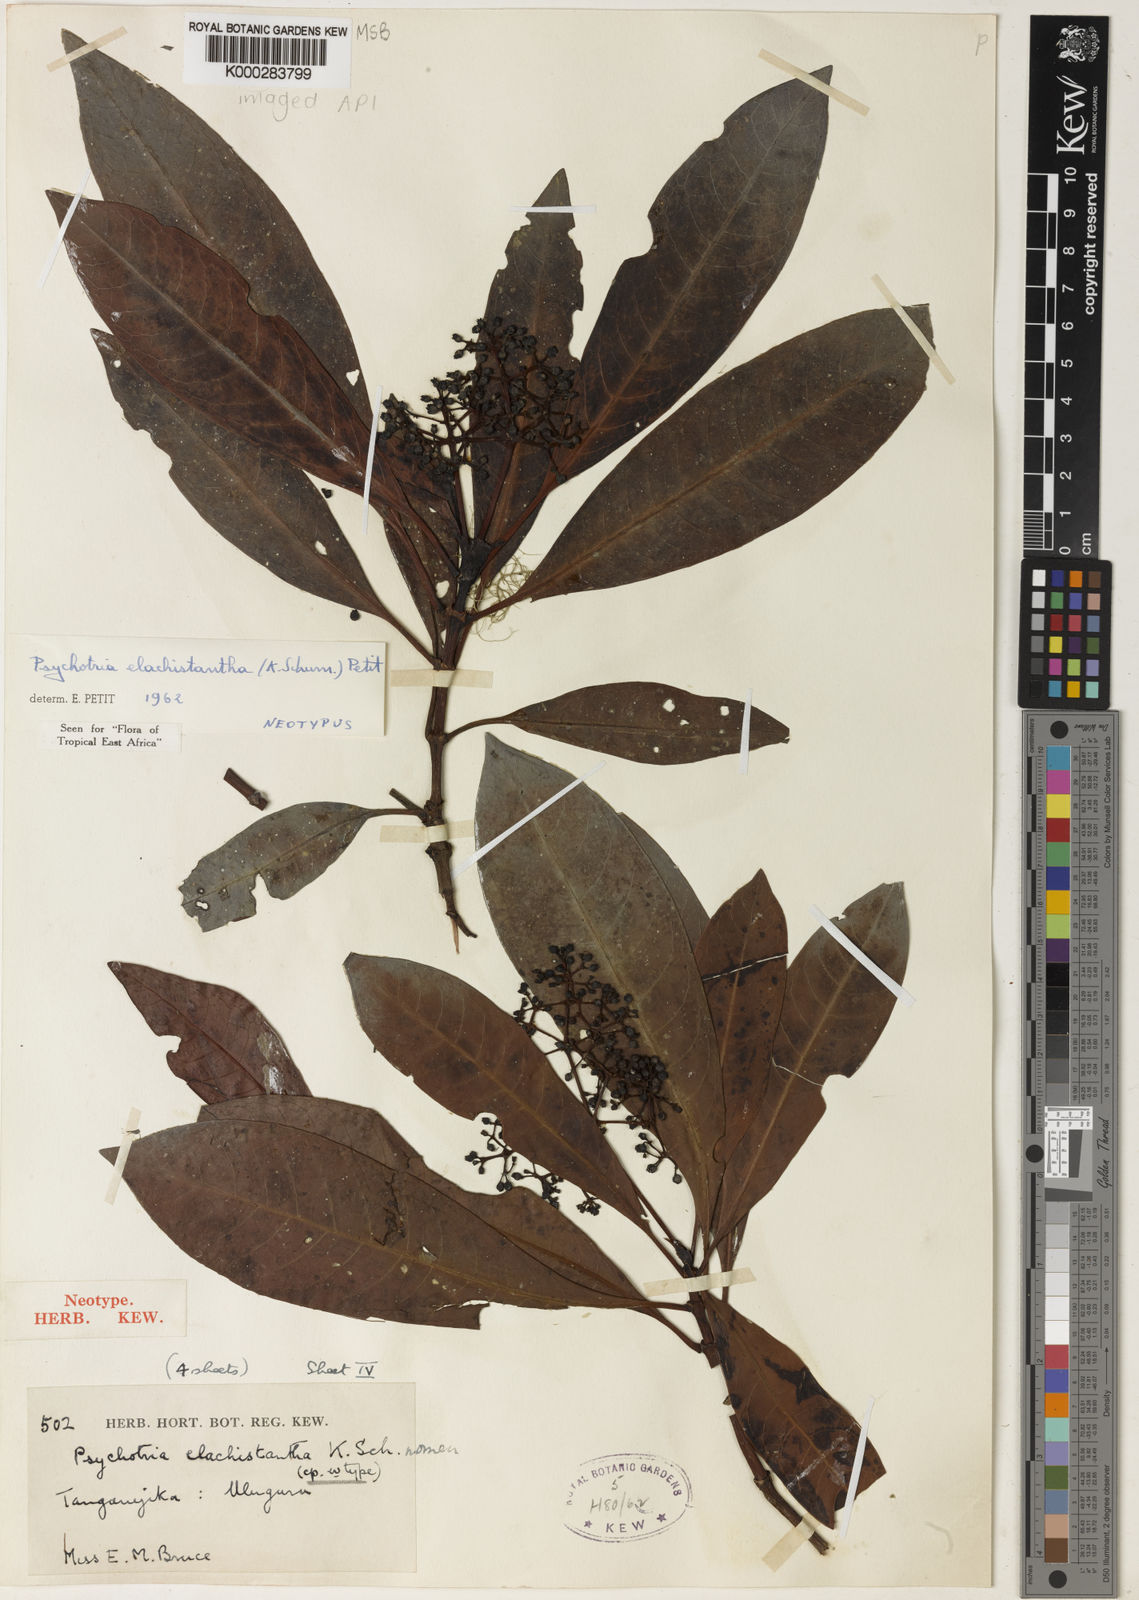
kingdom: Plantae
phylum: Tracheophyta
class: Magnoliopsida
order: Gentianales
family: Rubiaceae
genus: Psychotria
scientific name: Psychotria elachistantha
